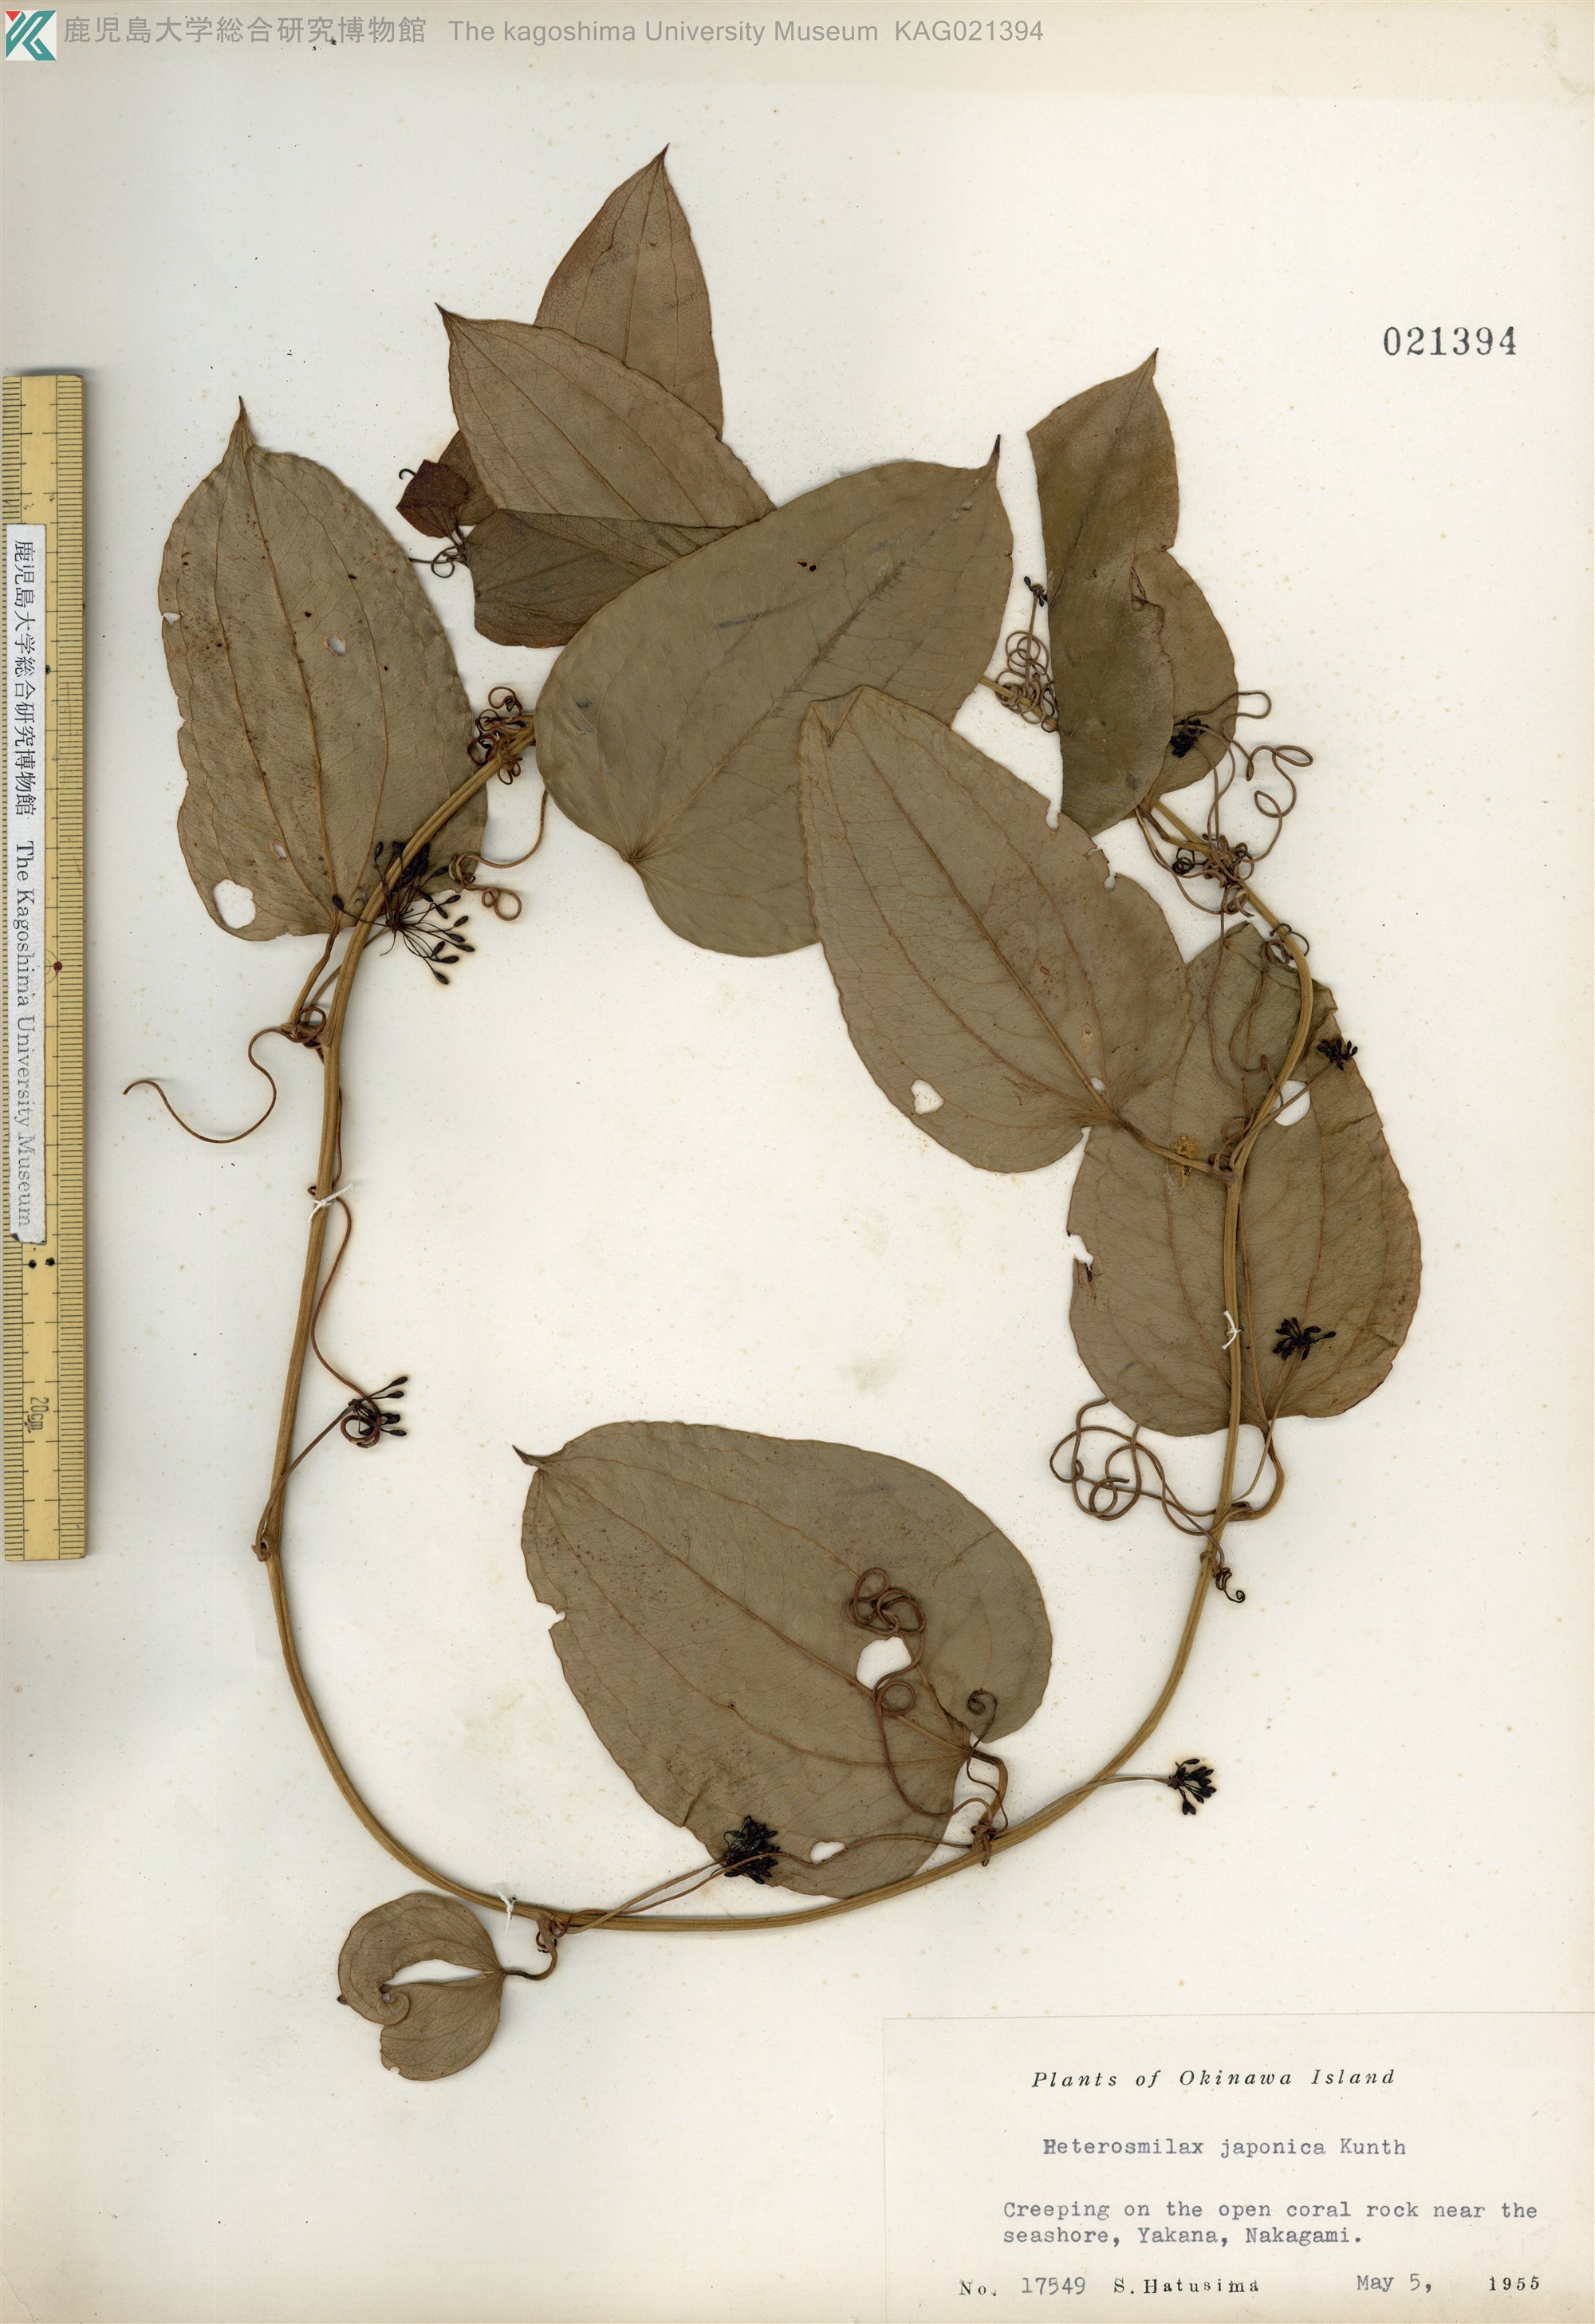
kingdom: Plantae
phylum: Tracheophyta
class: Liliopsida
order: Liliales
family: Smilacaceae
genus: Smilax
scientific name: Smilax insularis
